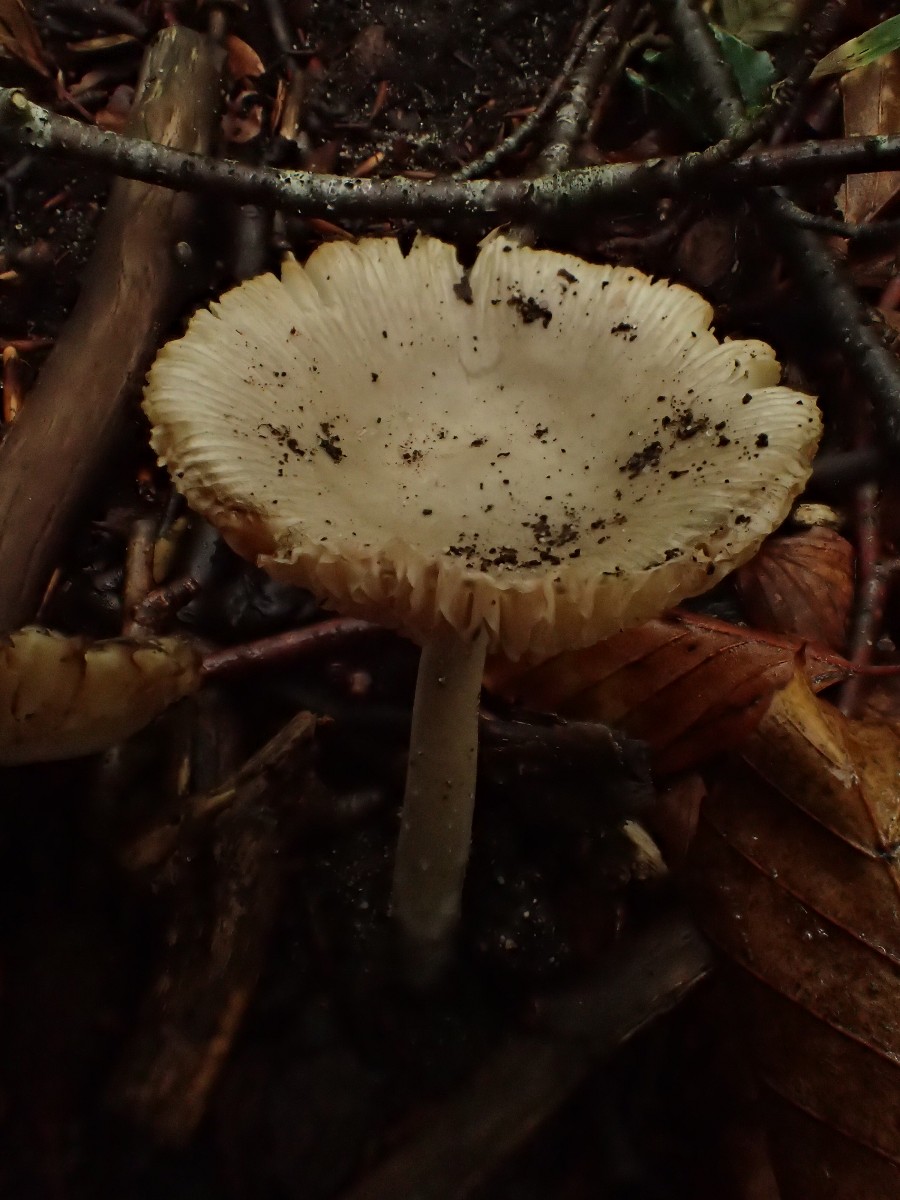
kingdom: Fungi
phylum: Basidiomycota
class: Agaricomycetes
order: Agaricales
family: Amanitaceae
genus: Amanita
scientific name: Amanita vaginata
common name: grå kam-fluesvamp
